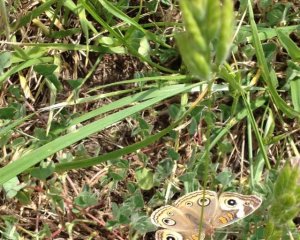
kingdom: Animalia
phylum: Arthropoda
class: Insecta
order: Lepidoptera
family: Nymphalidae
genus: Junonia
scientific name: Junonia coenia
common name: Common Buckeye
